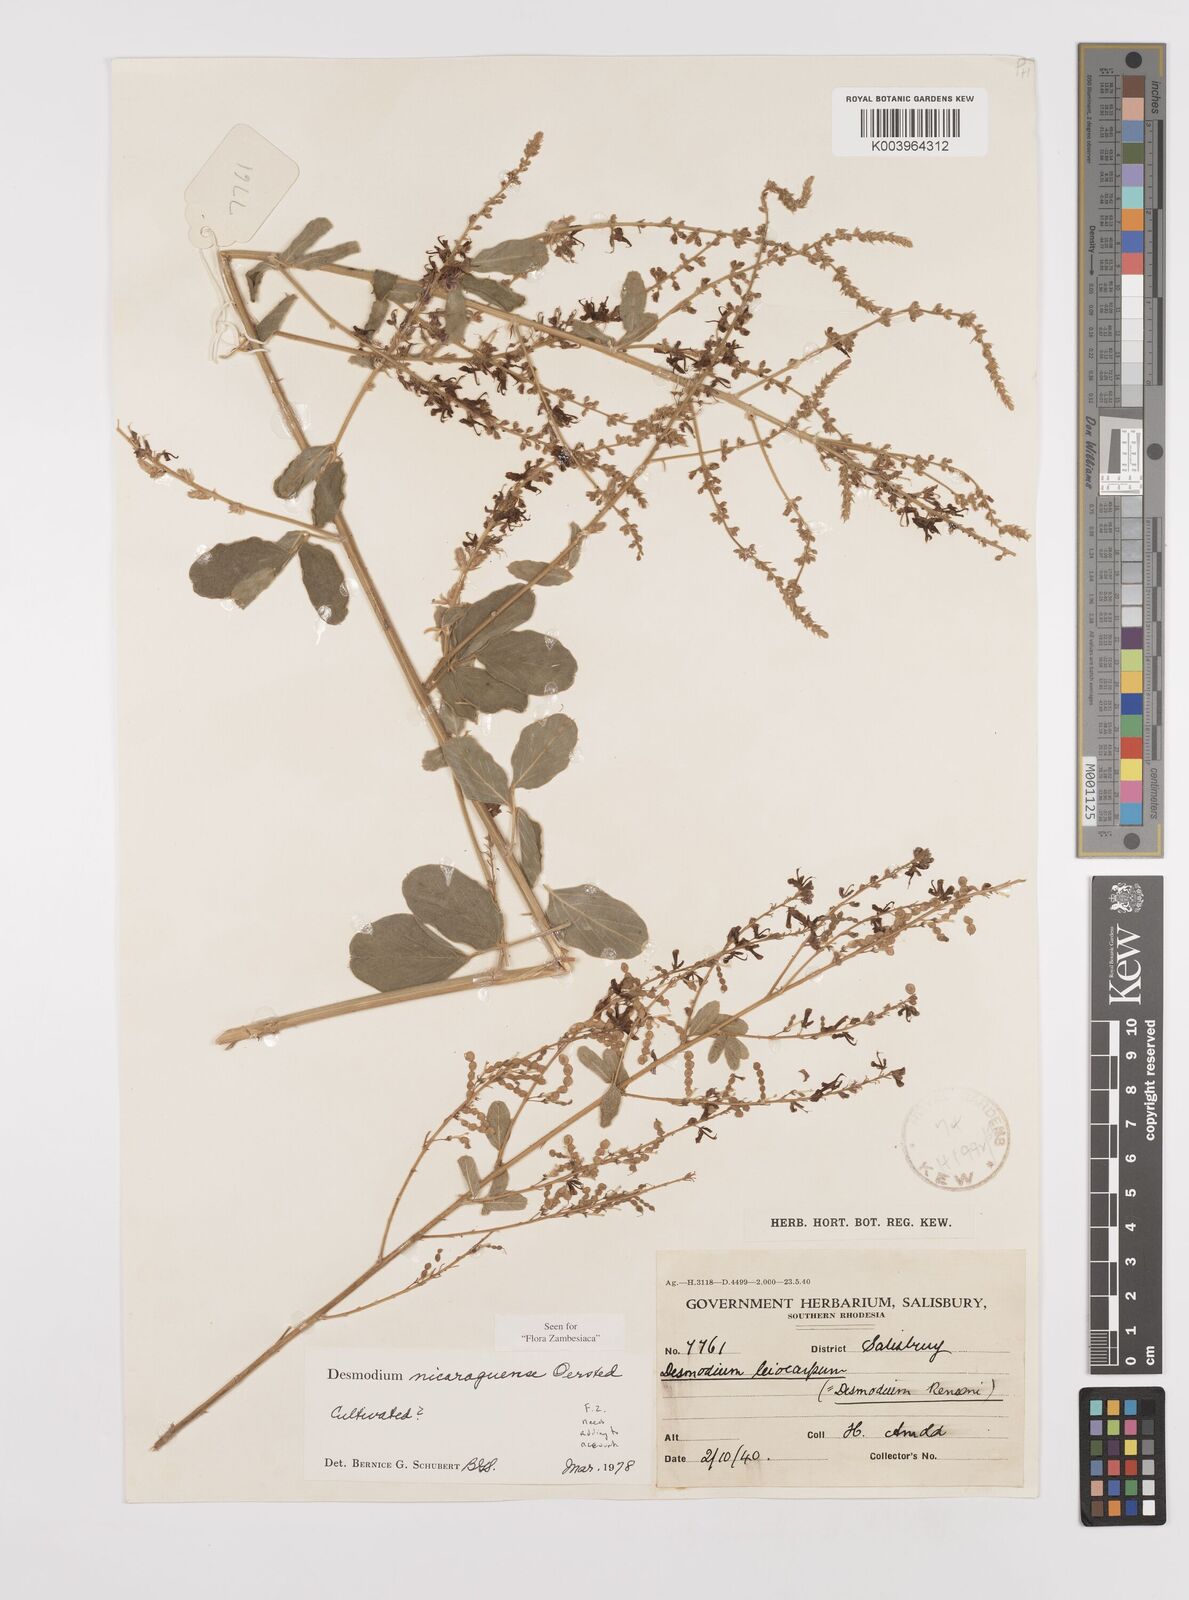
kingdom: Plantae
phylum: Tracheophyta
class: Magnoliopsida
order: Fabales
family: Fabaceae
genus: Desmodium
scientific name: Desmodium nicaraguense
